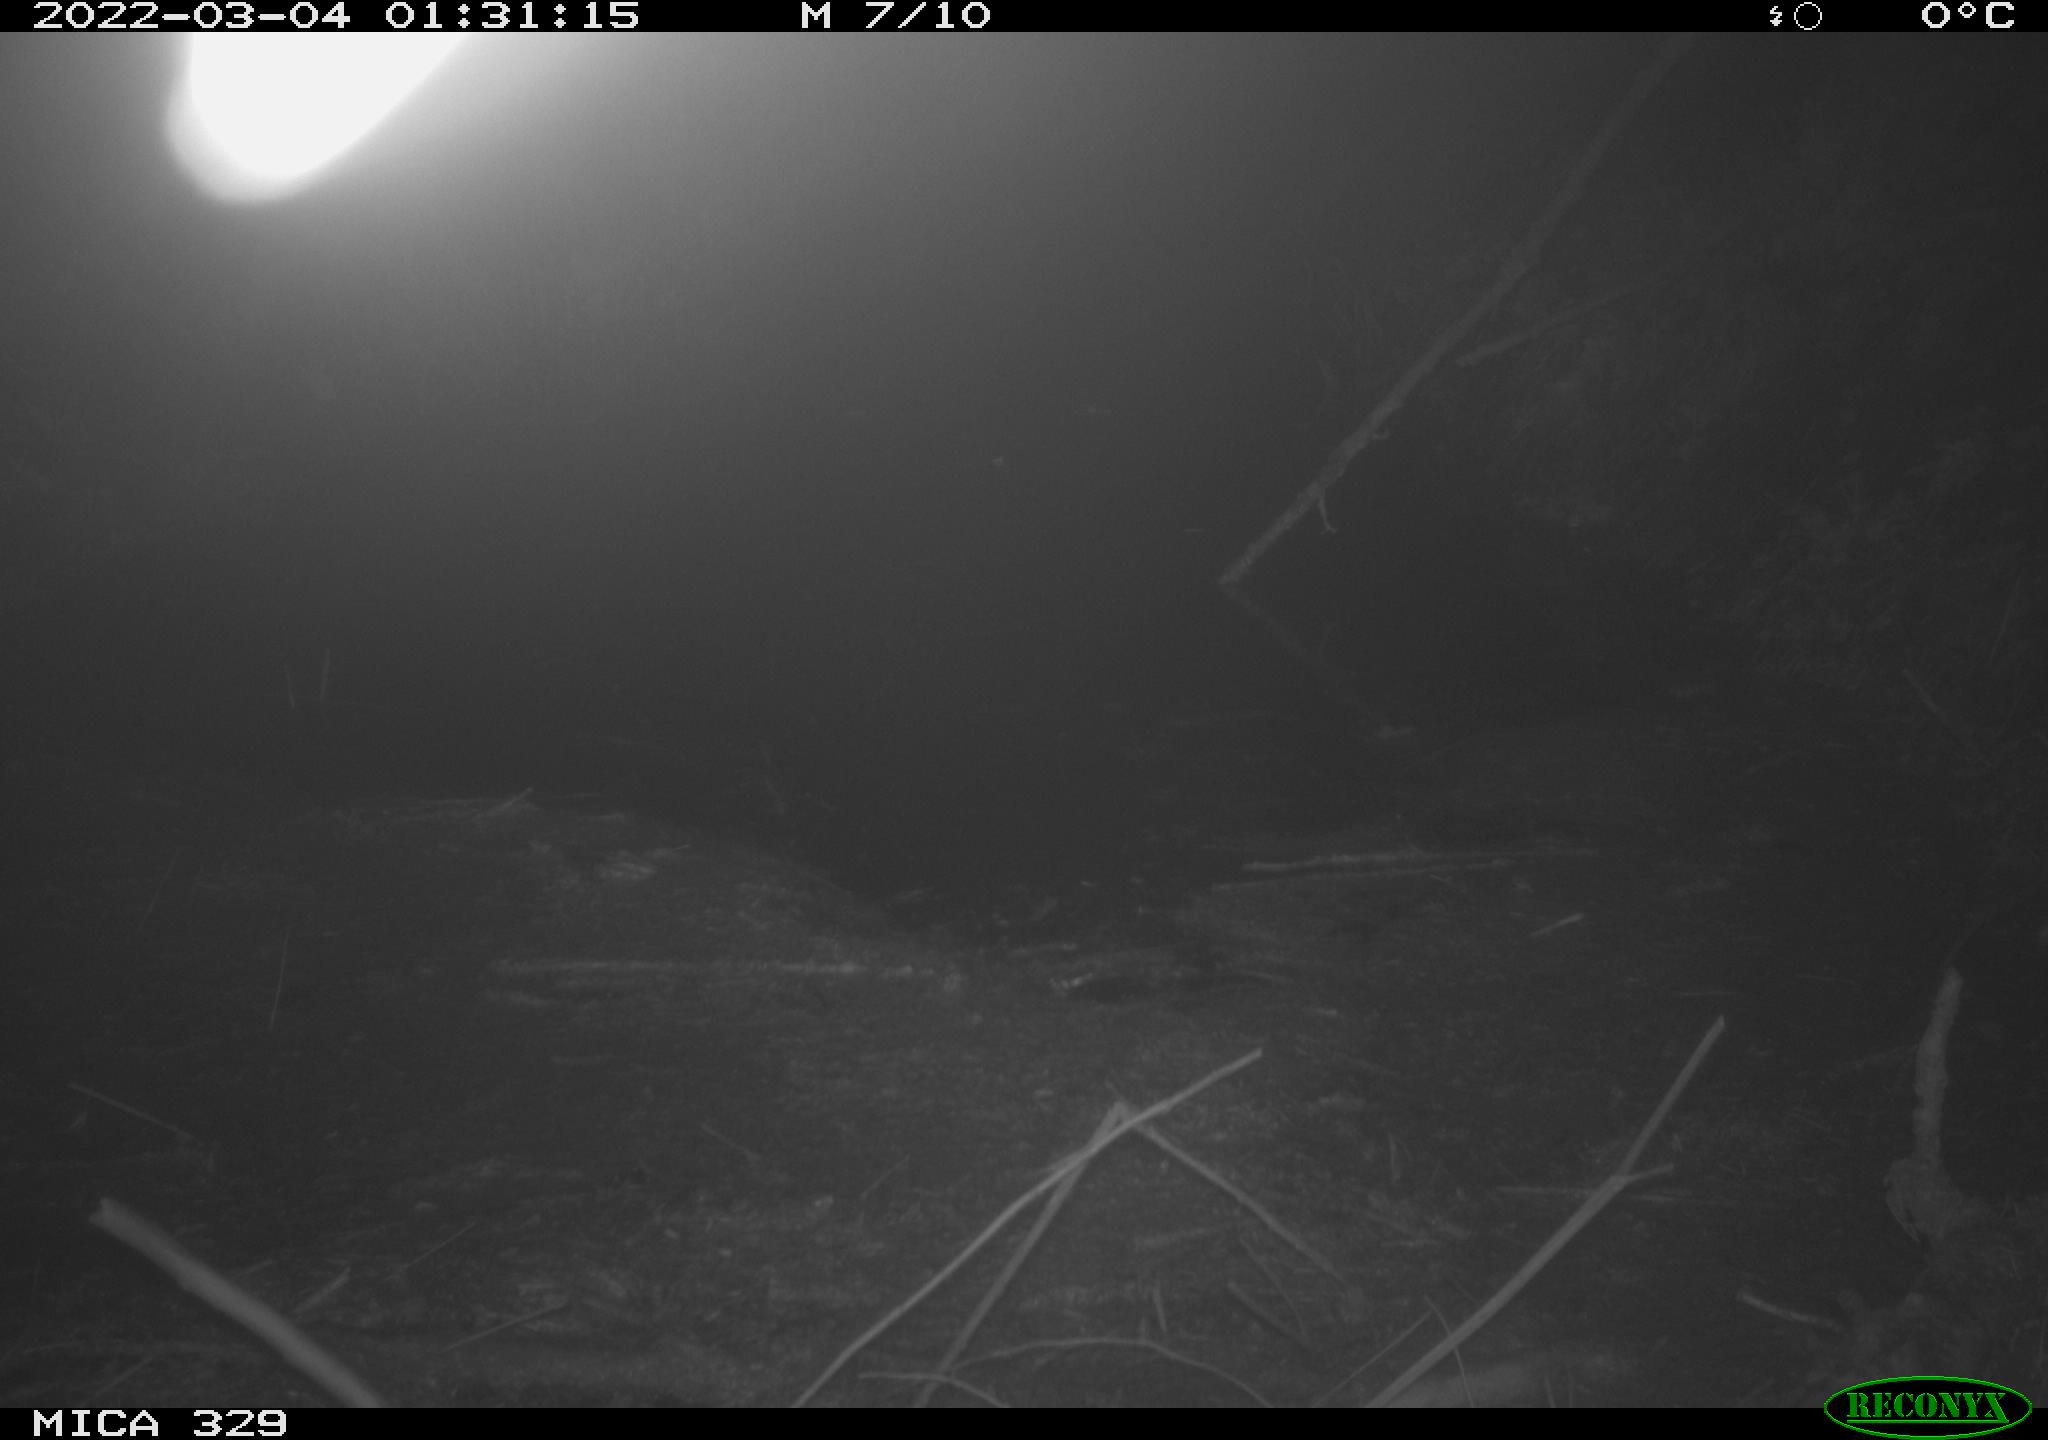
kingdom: Animalia
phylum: Chordata
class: Mammalia
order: Rodentia
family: Cricetidae
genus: Ondatra
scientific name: Ondatra zibethicus
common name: Muskrat
